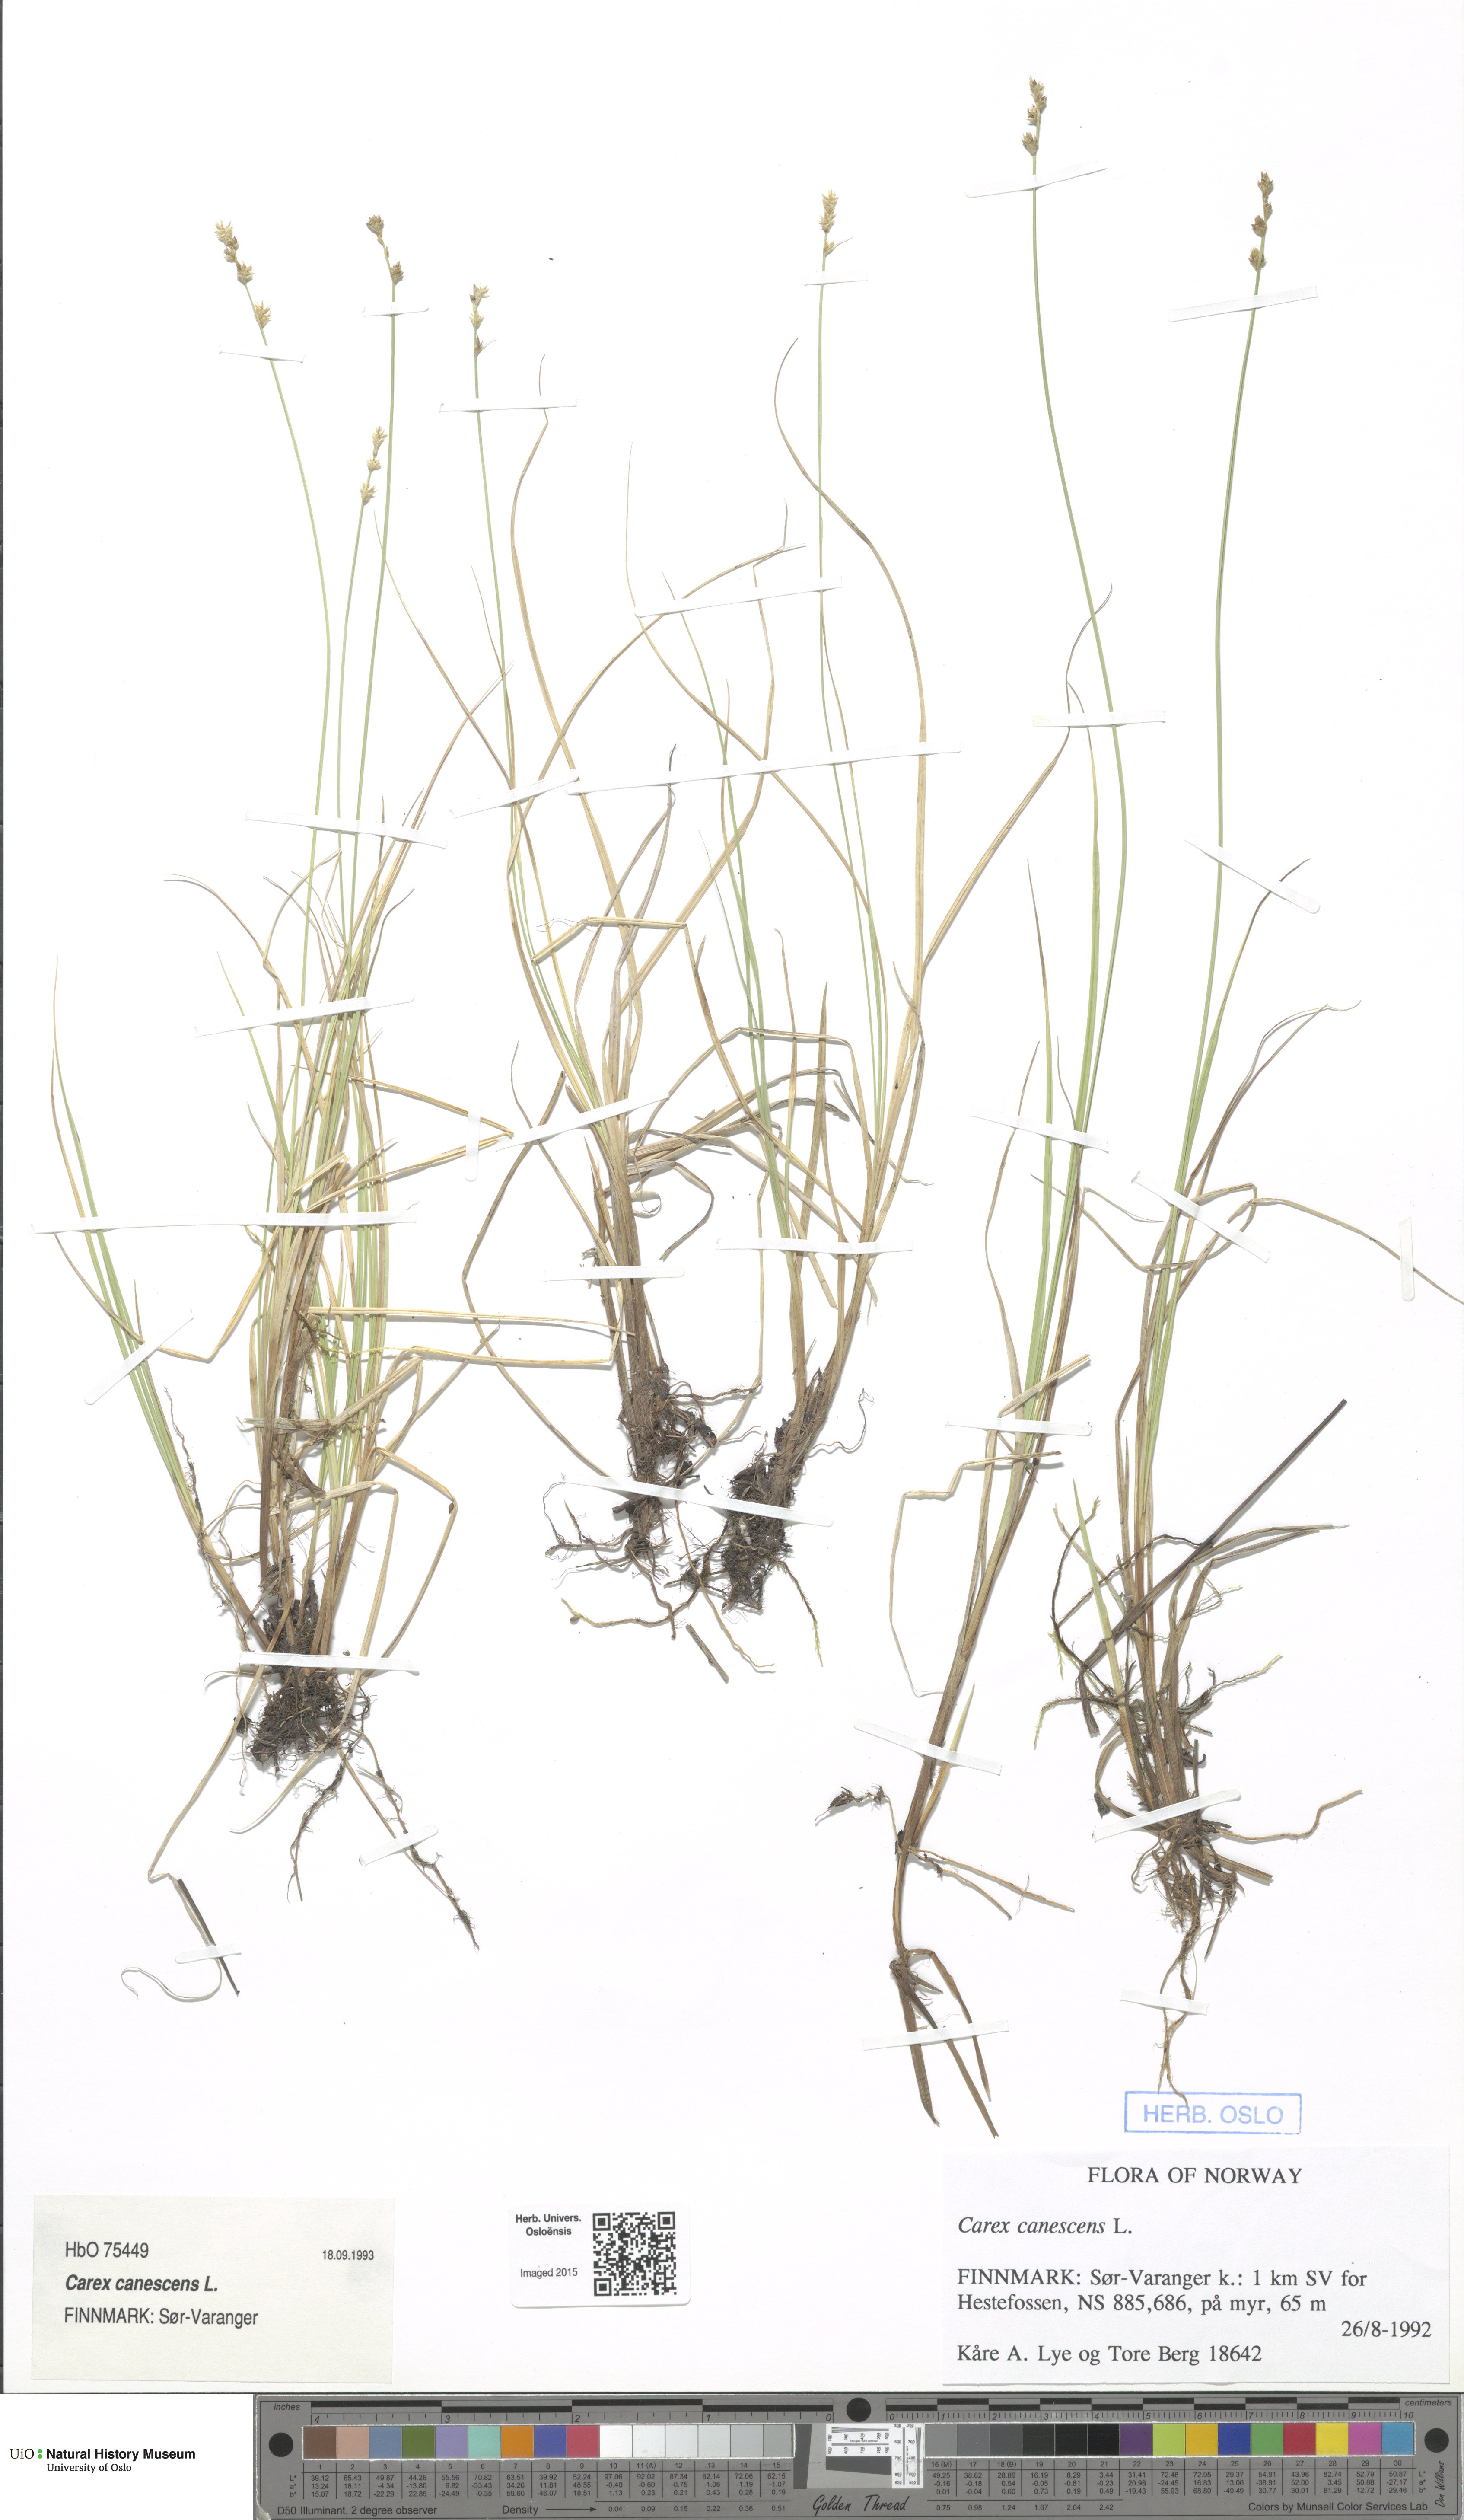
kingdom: Plantae
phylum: Tracheophyta
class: Liliopsida
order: Poales
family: Cyperaceae
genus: Carex
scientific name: Carex canescens
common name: White sedge
